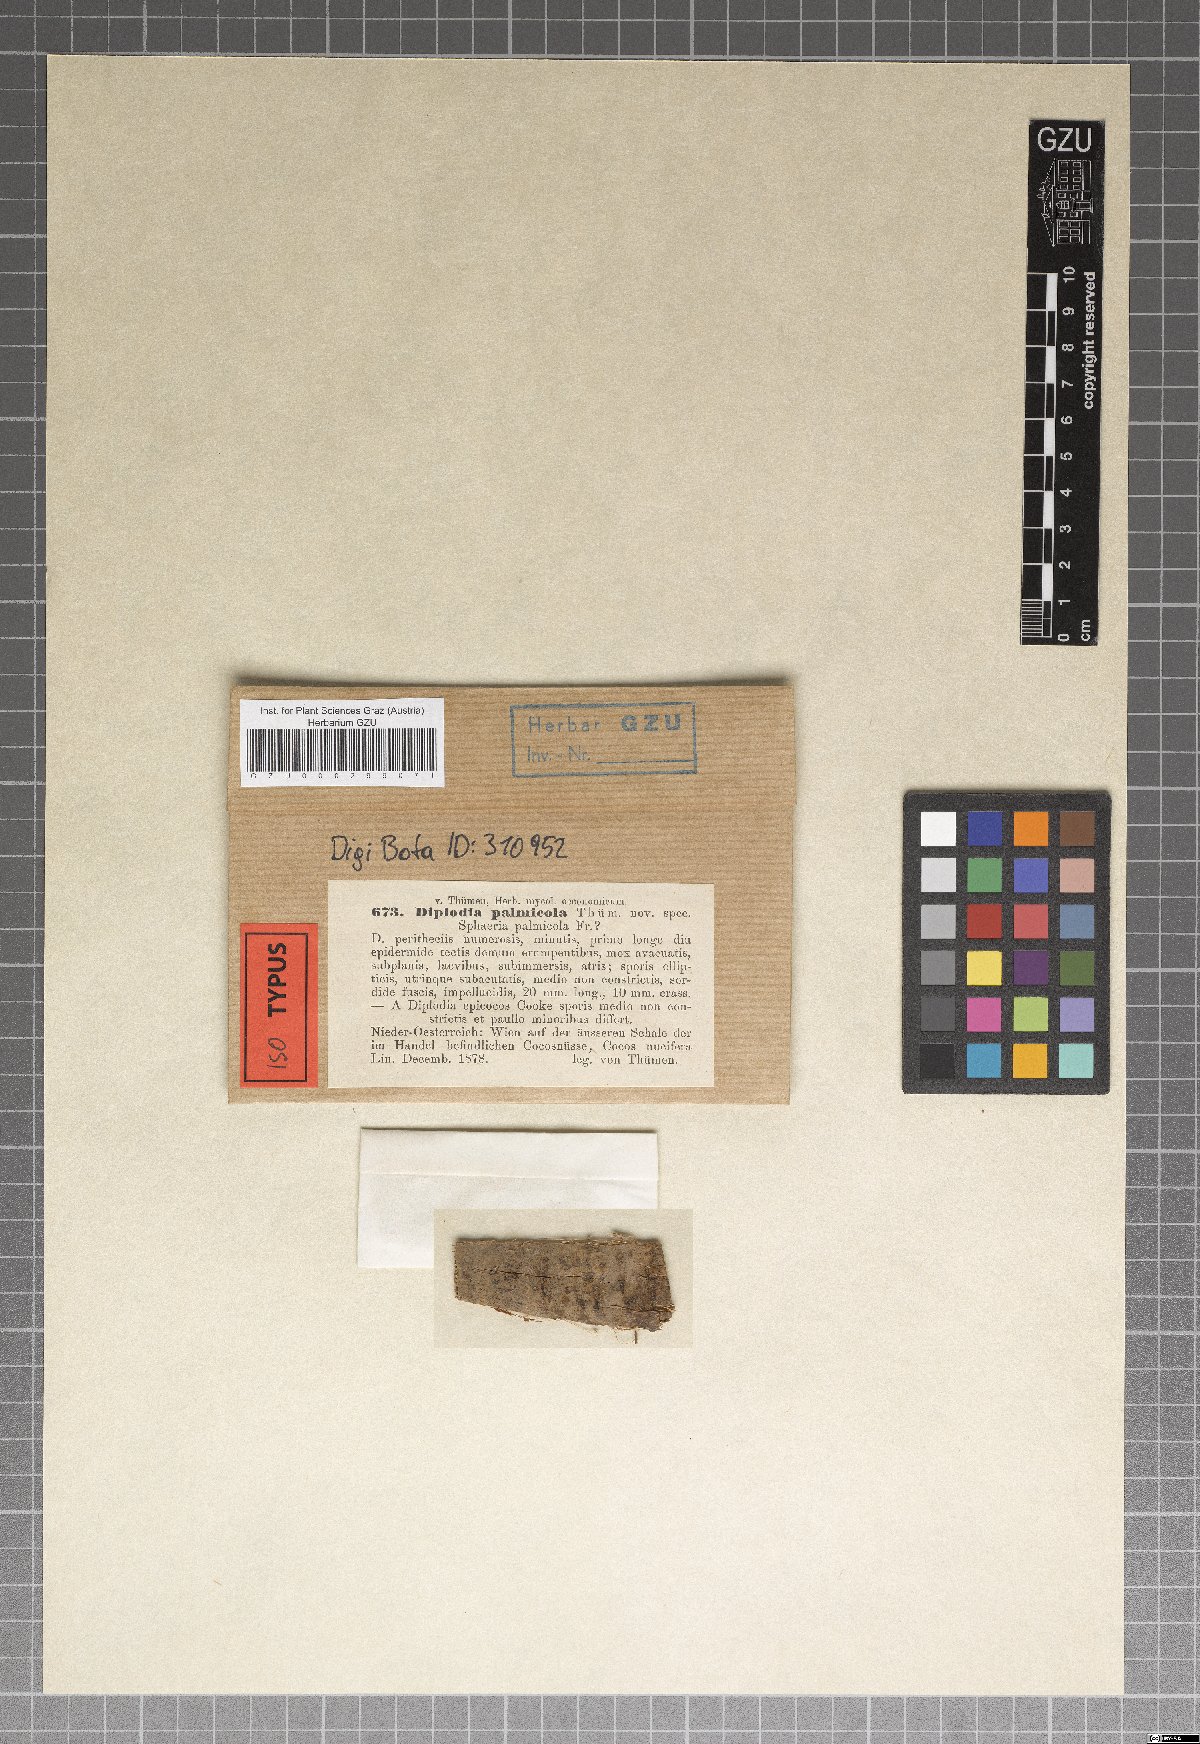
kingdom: Fungi
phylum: Ascomycota
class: Dothideomycetes
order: Botryosphaeriales
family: Botryosphaeriaceae
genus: Diplodia
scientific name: Diplodia palmicola
